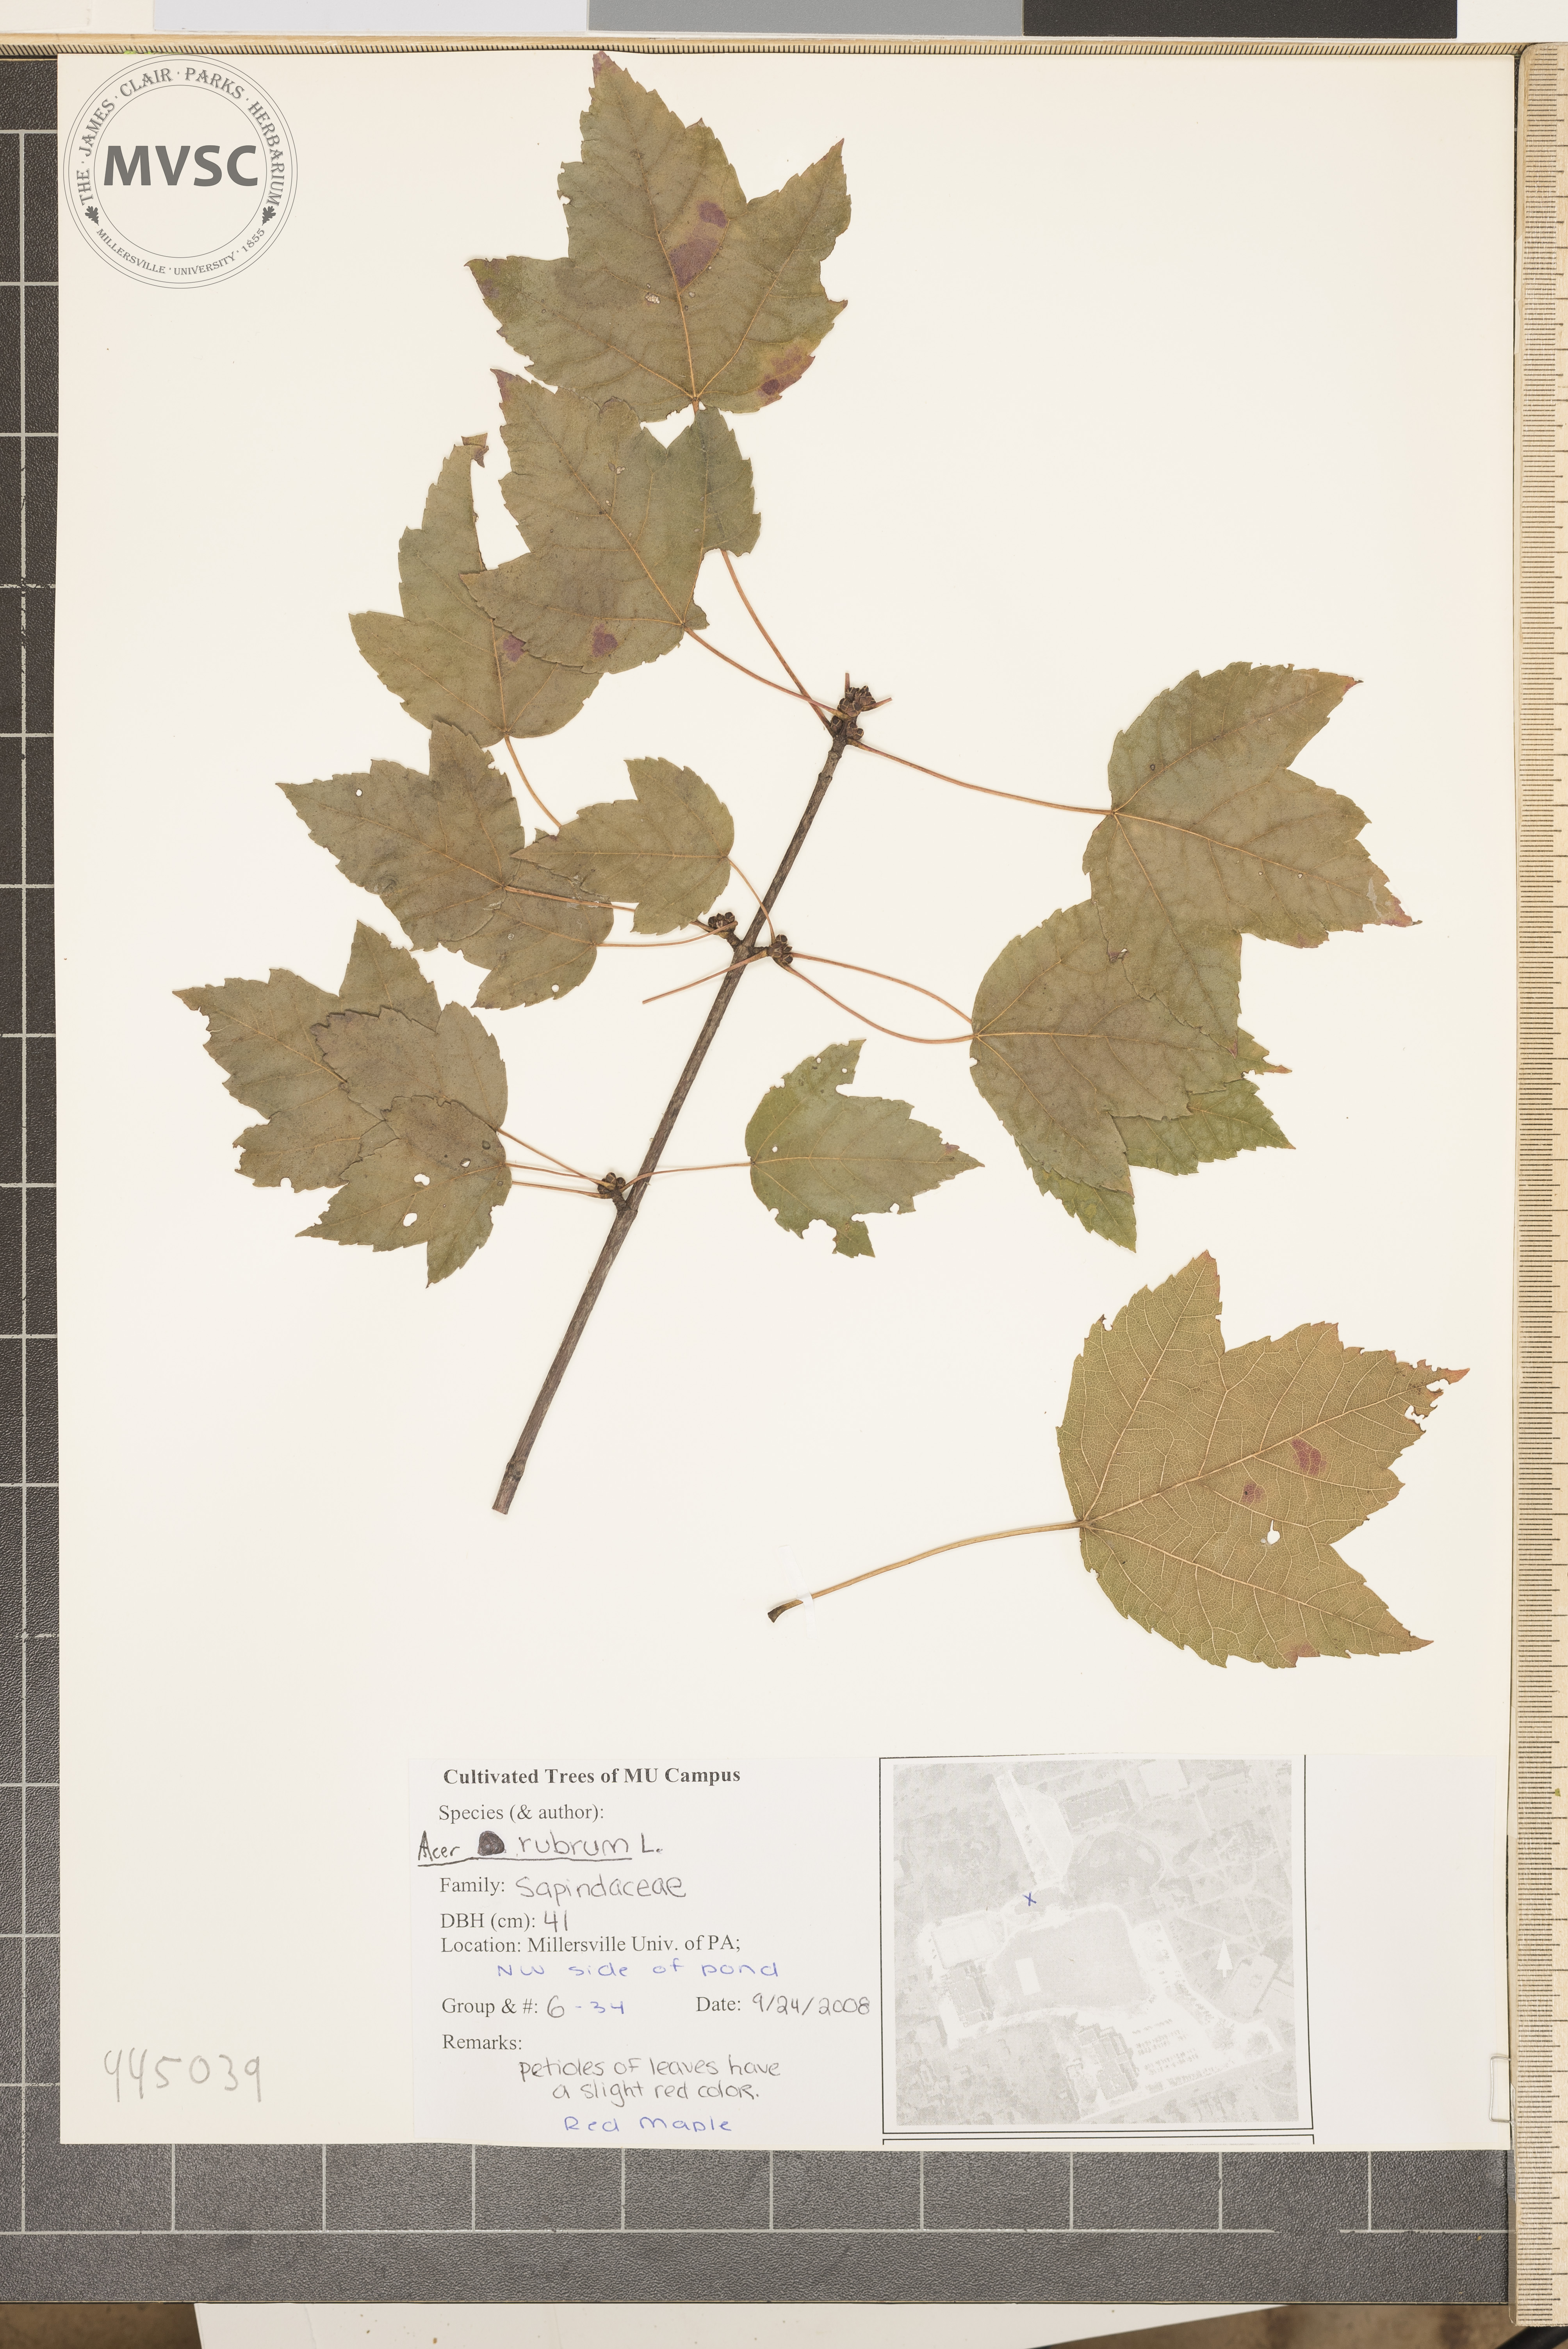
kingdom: Plantae
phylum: Tracheophyta
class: Magnoliopsida
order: Sapindales
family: Sapindaceae
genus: Acer
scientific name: Acer rubrum
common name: Red maple
